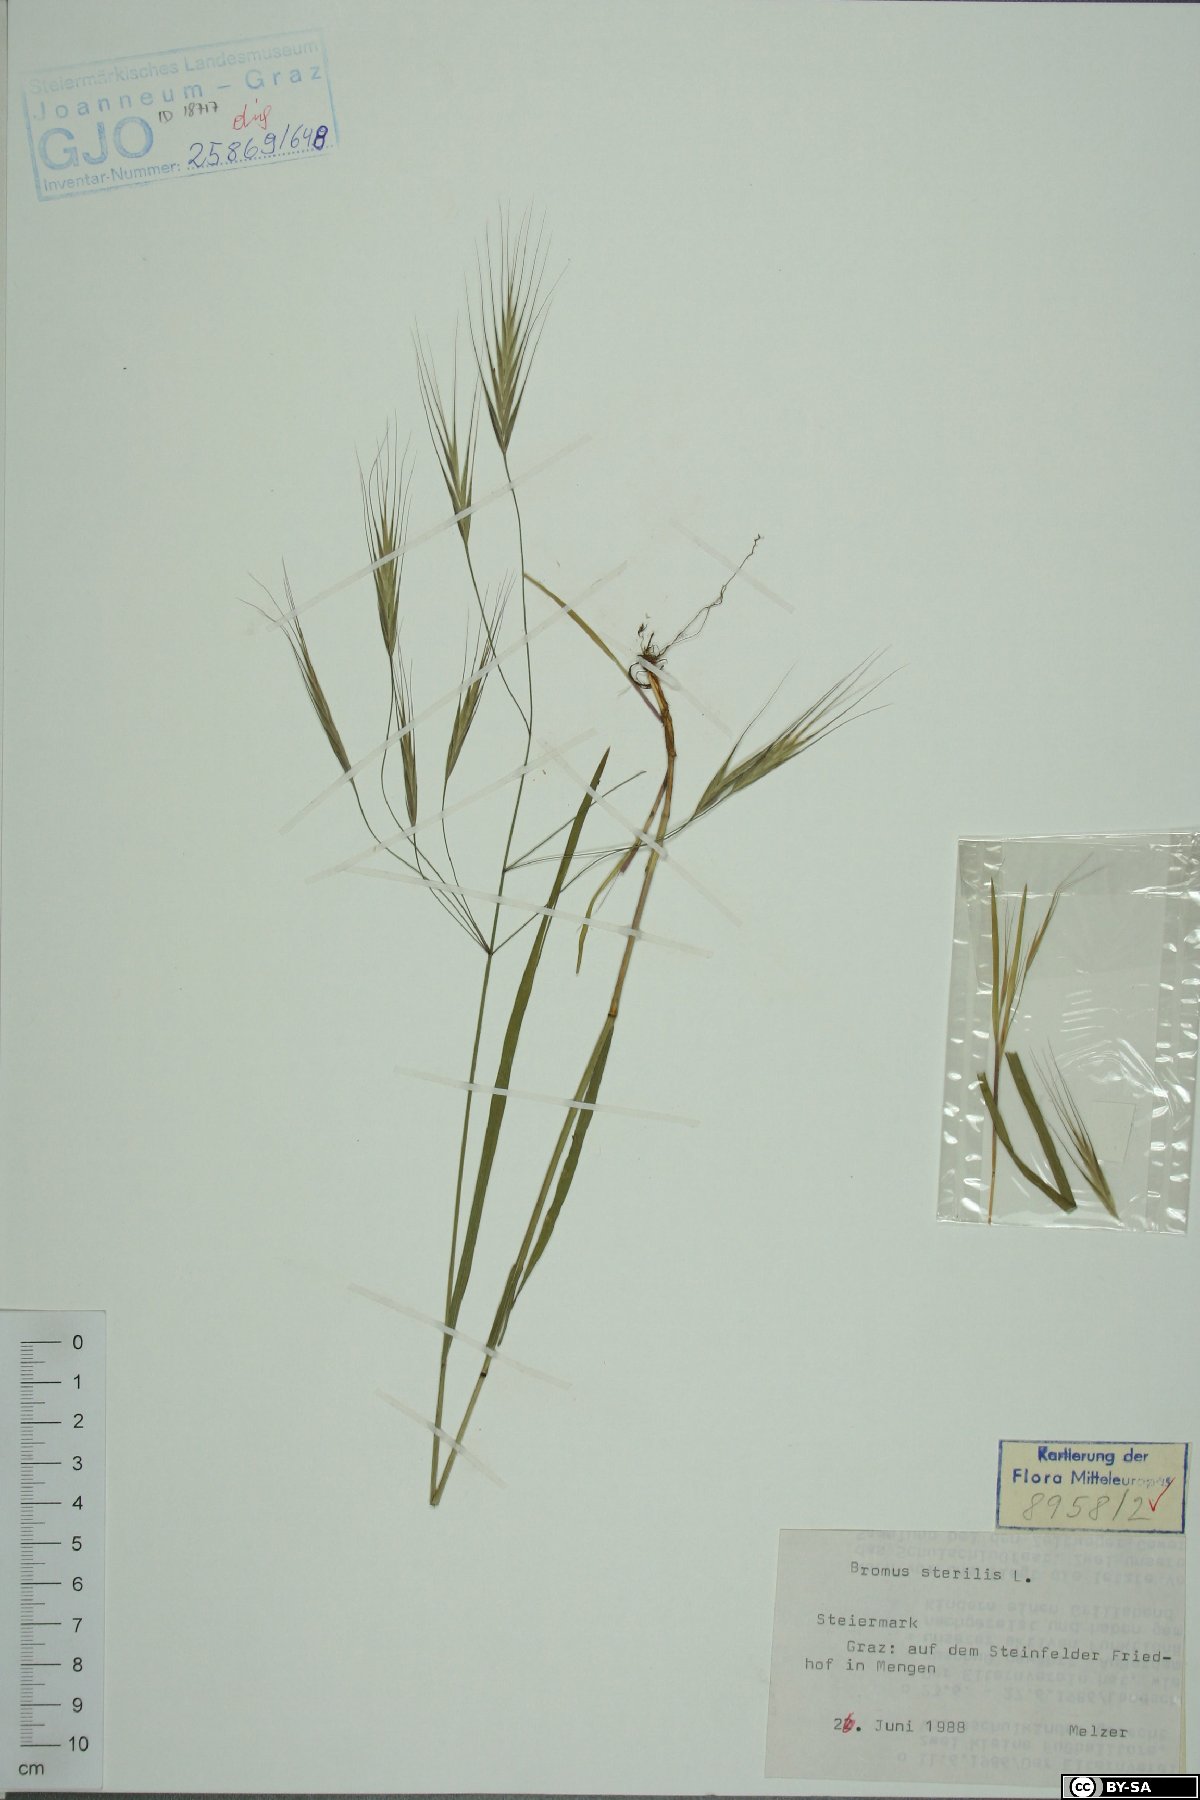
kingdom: Plantae
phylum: Tracheophyta
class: Liliopsida
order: Poales
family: Poaceae
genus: Bromus
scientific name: Bromus sterilis
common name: Poverty brome
